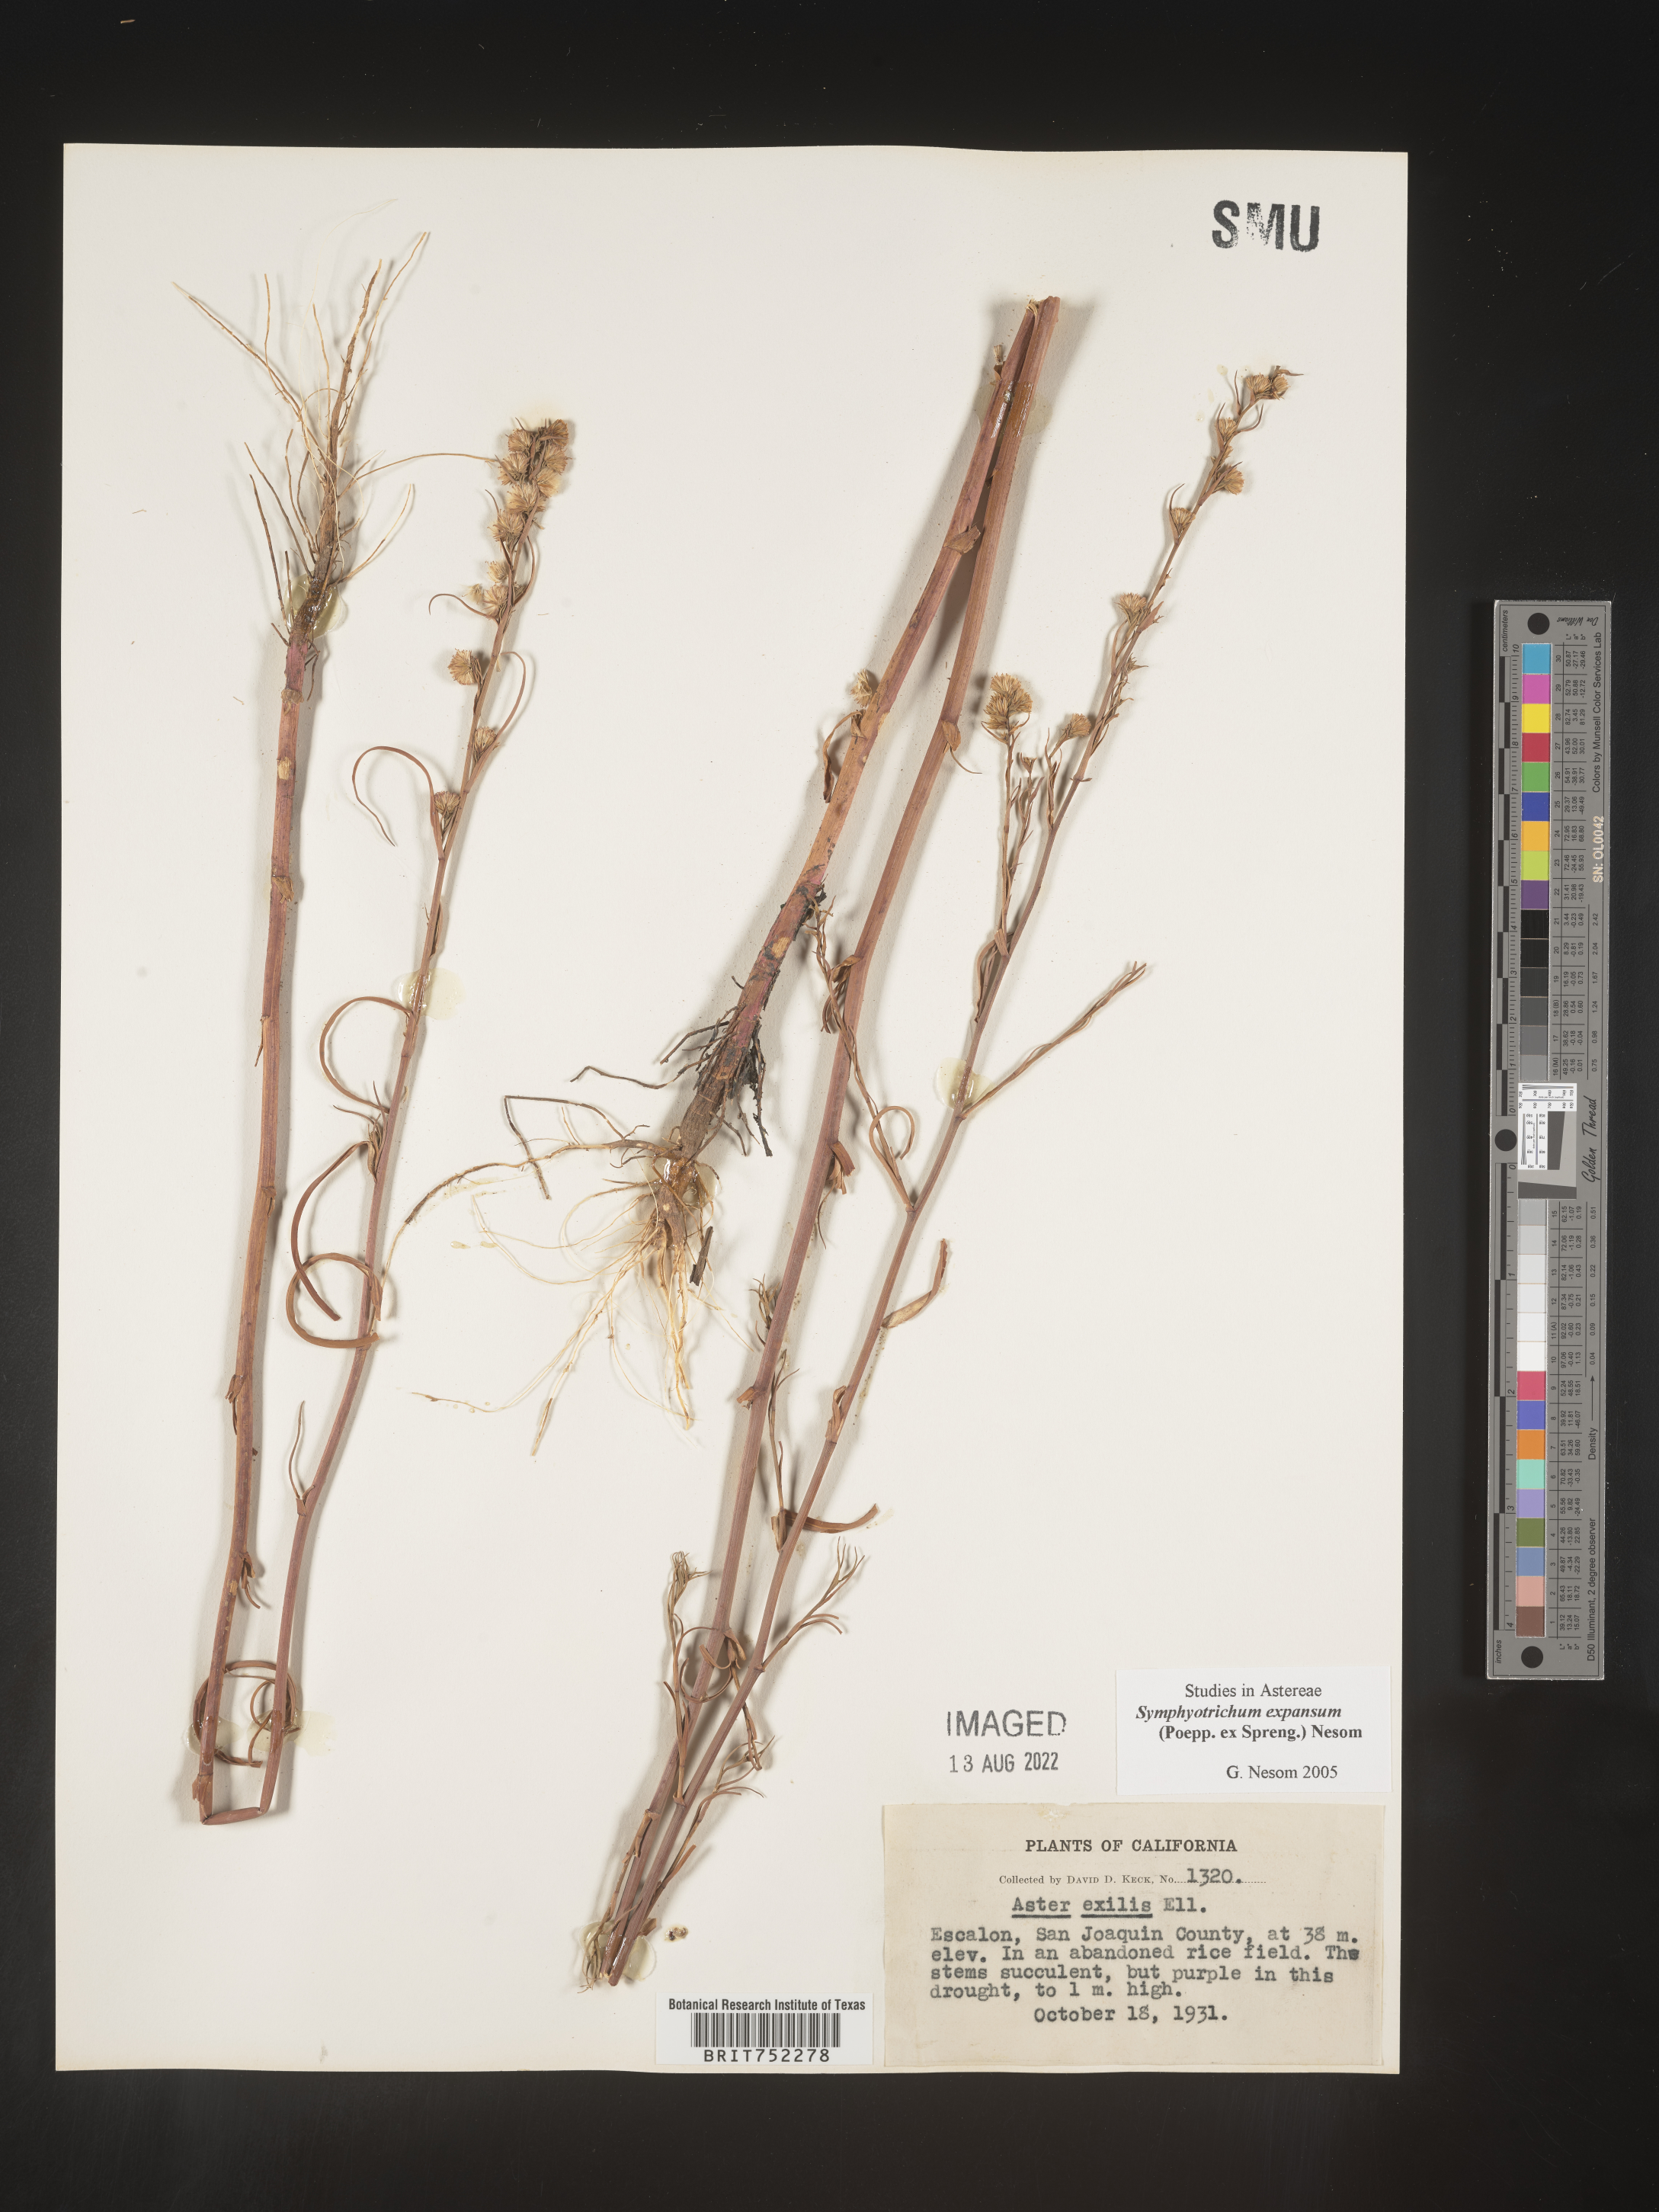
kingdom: Plantae
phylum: Tracheophyta
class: Magnoliopsida
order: Asterales
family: Asteraceae
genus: Symphyotrichum
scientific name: Symphyotrichum expansum
